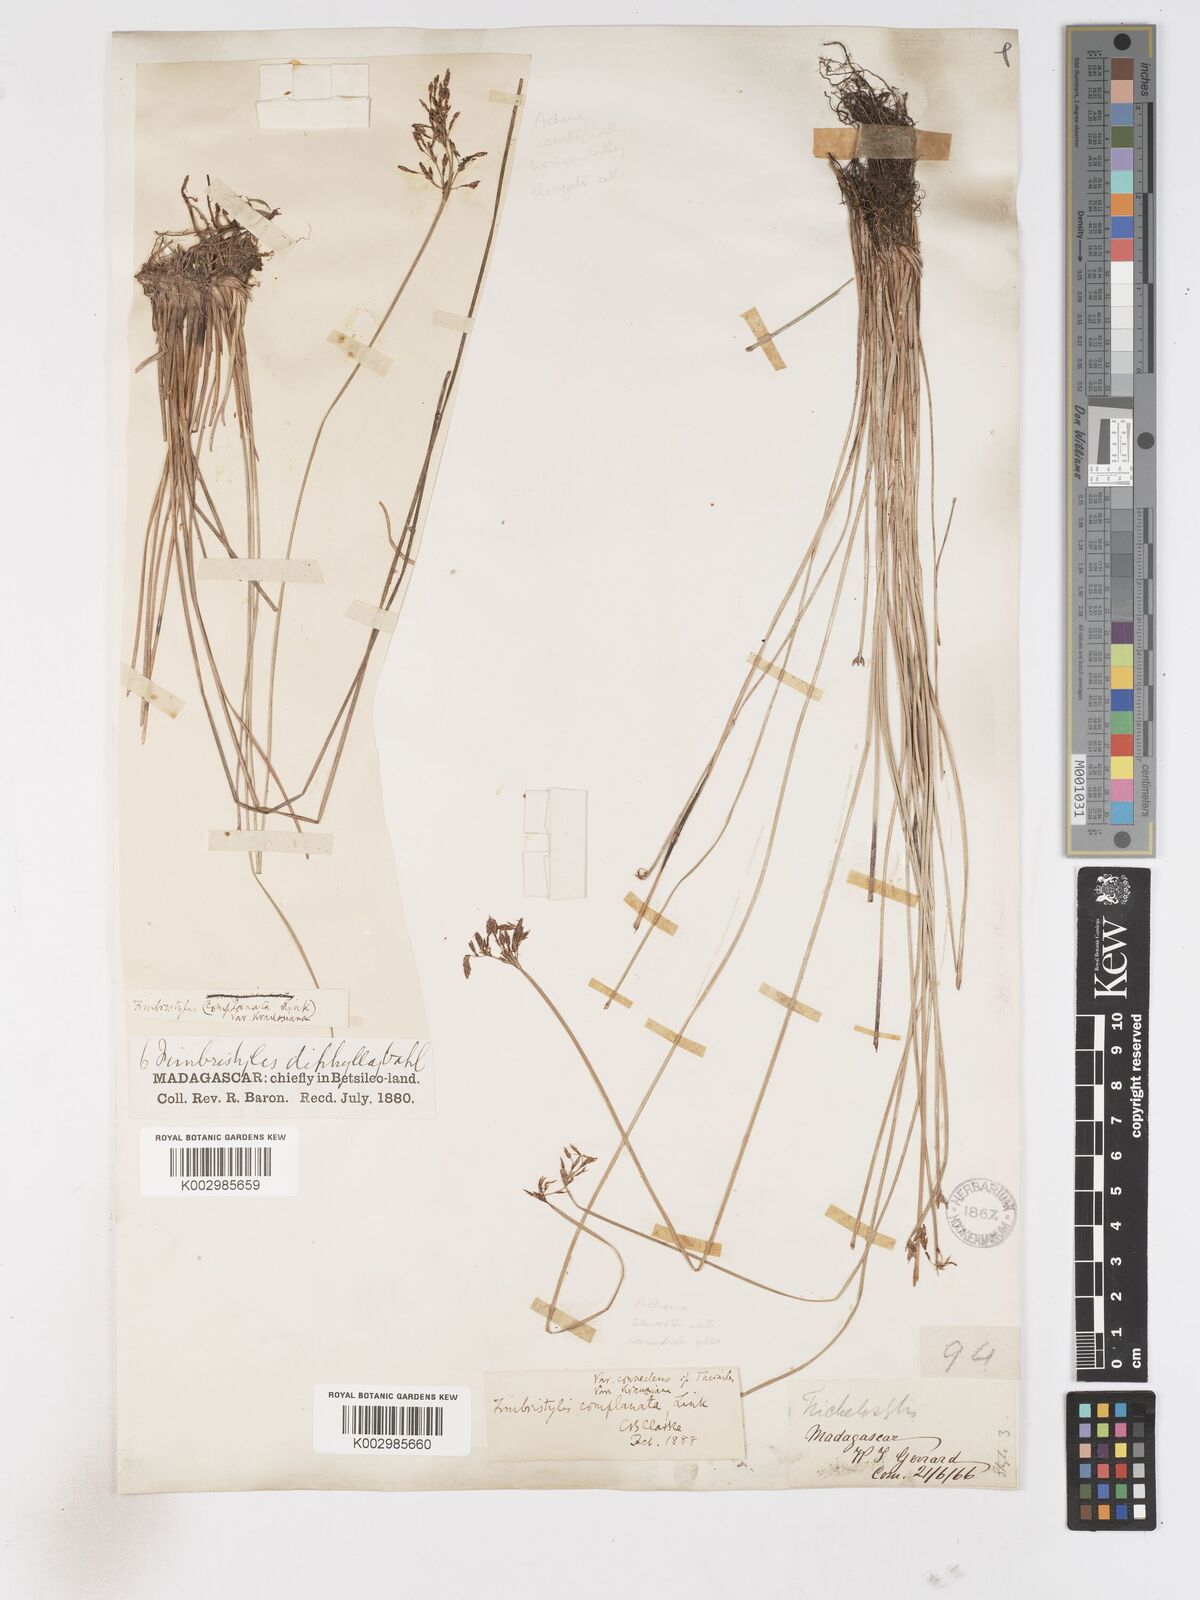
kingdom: Plantae
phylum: Tracheophyta
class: Liliopsida
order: Poales
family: Cyperaceae
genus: Fimbristylis
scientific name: Fimbristylis consanguinea
